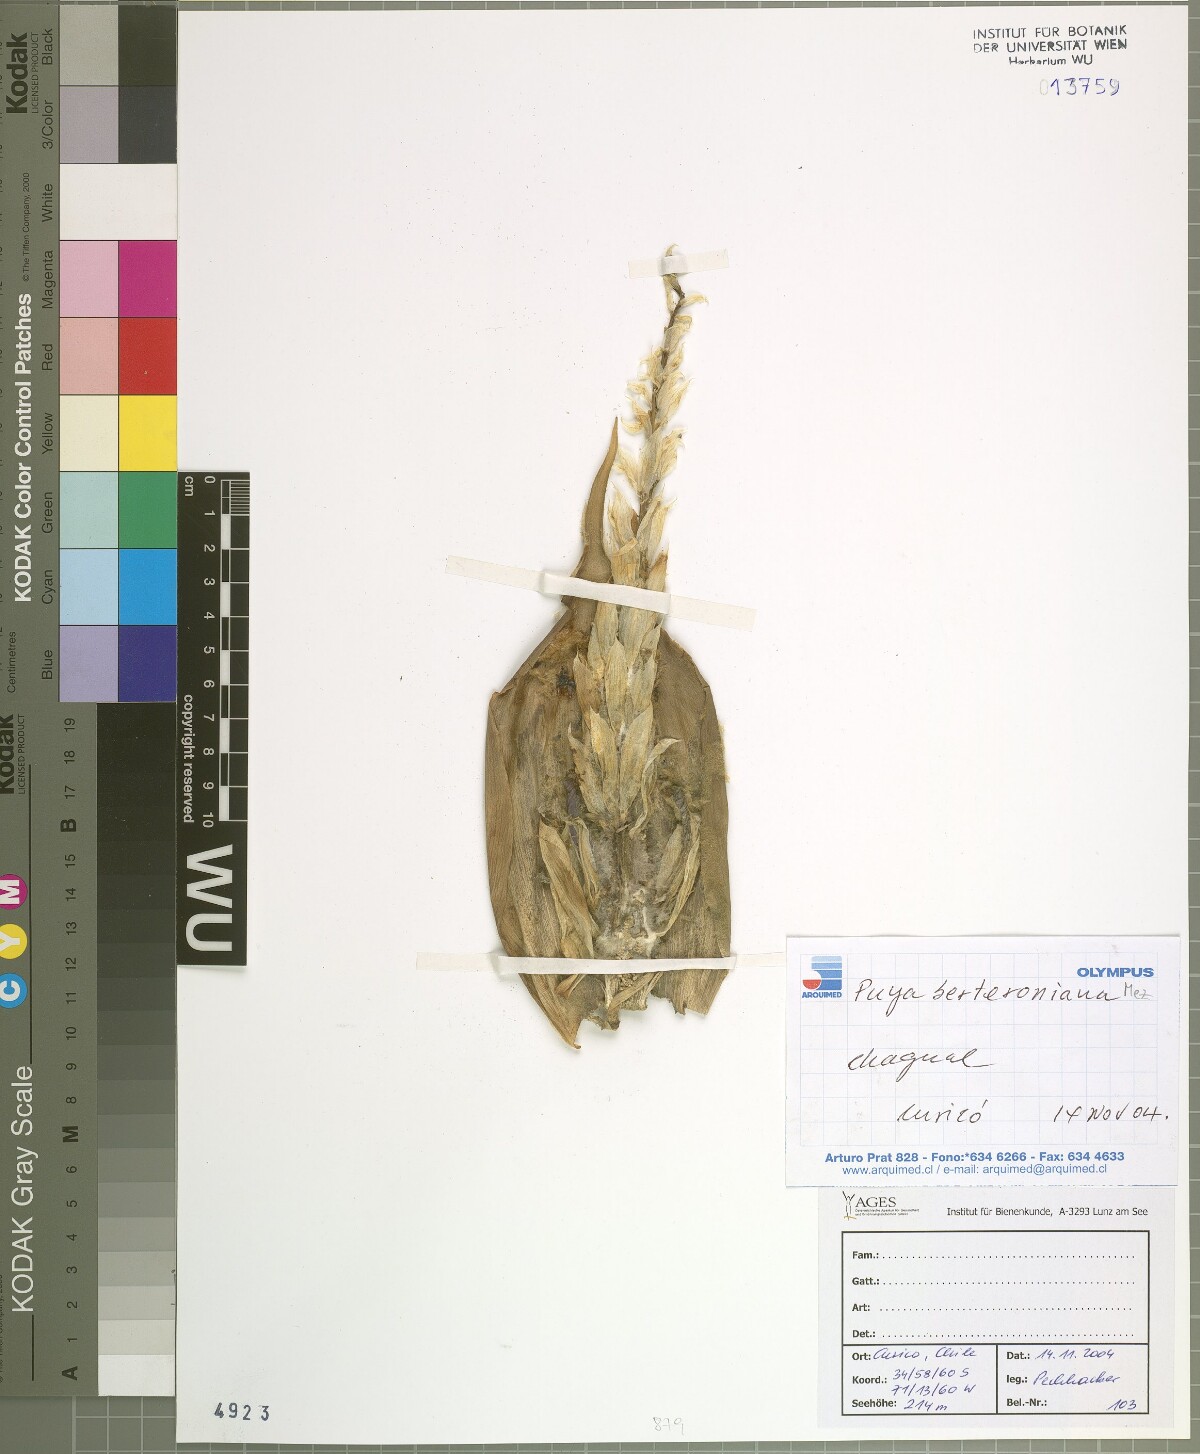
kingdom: Plantae
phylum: Tracheophyta
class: Liliopsida
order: Poales
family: Bromeliaceae
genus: Puya
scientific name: Puya berteroniana
